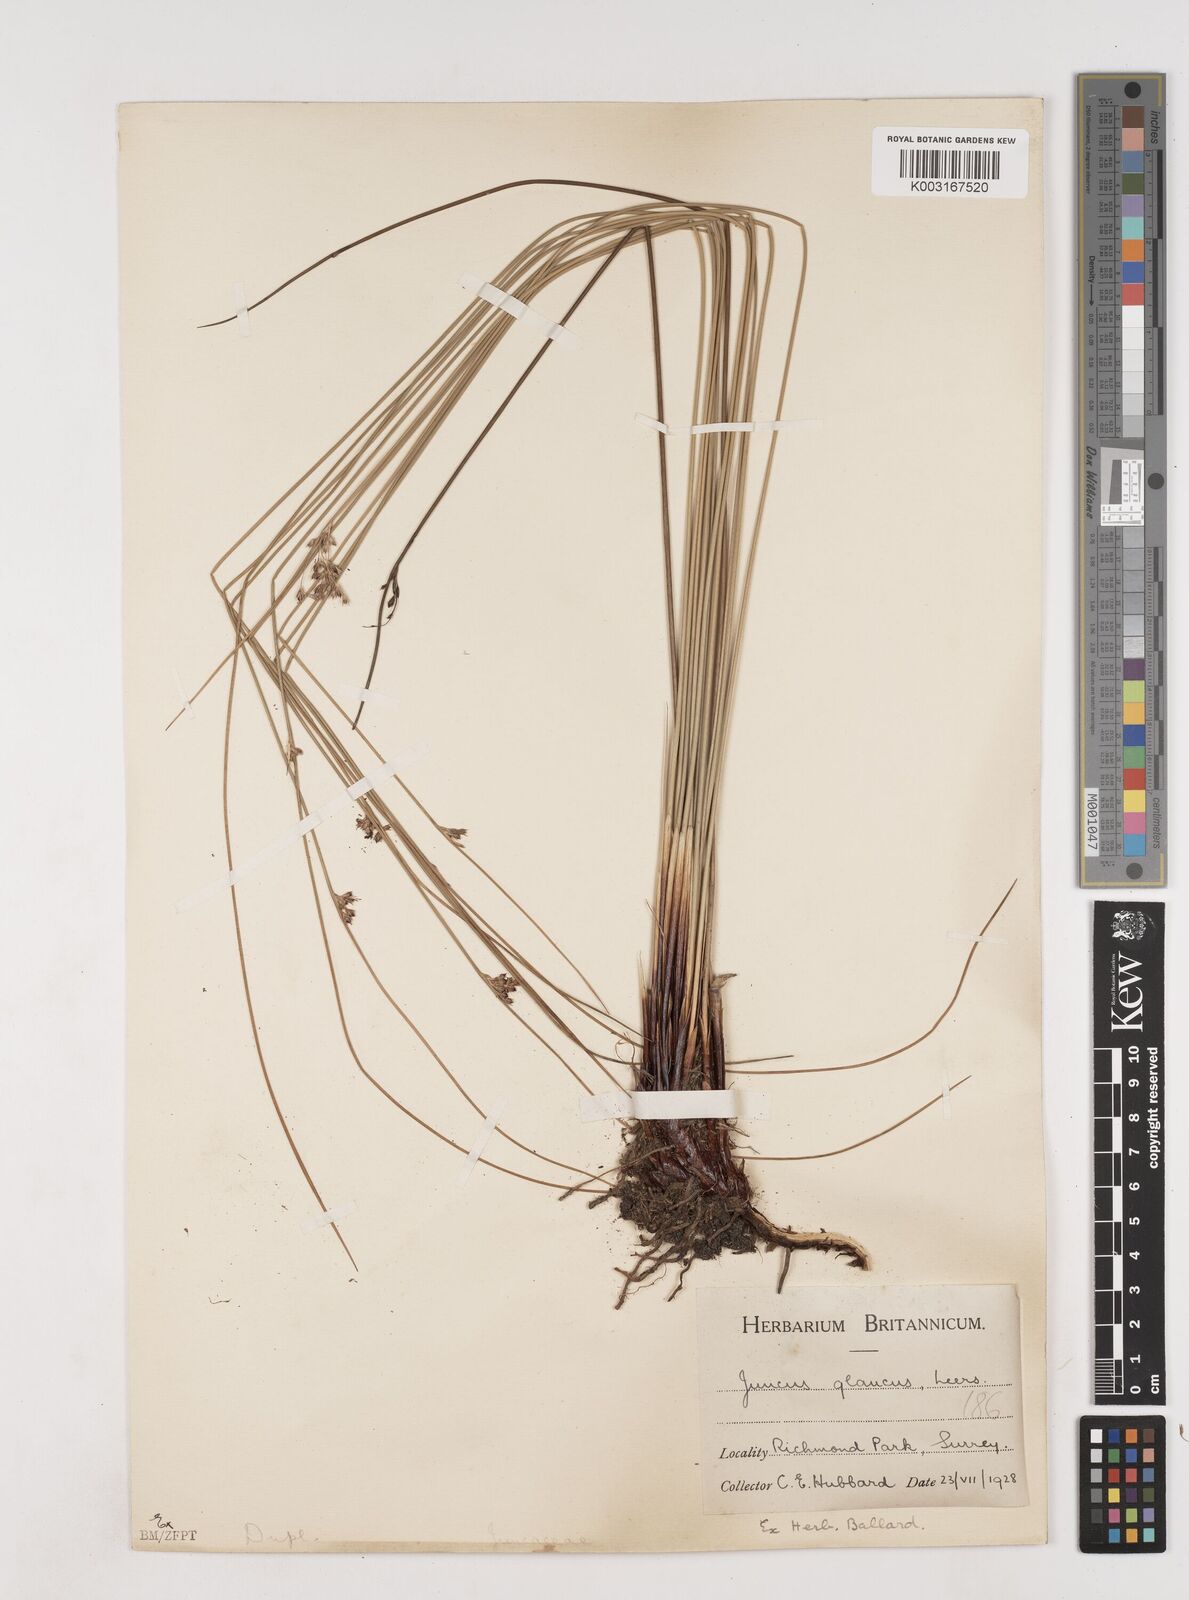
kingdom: Plantae
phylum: Tracheophyta
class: Liliopsida
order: Poales
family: Juncaceae
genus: Juncus
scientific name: Juncus inflexus
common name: Hard rush
